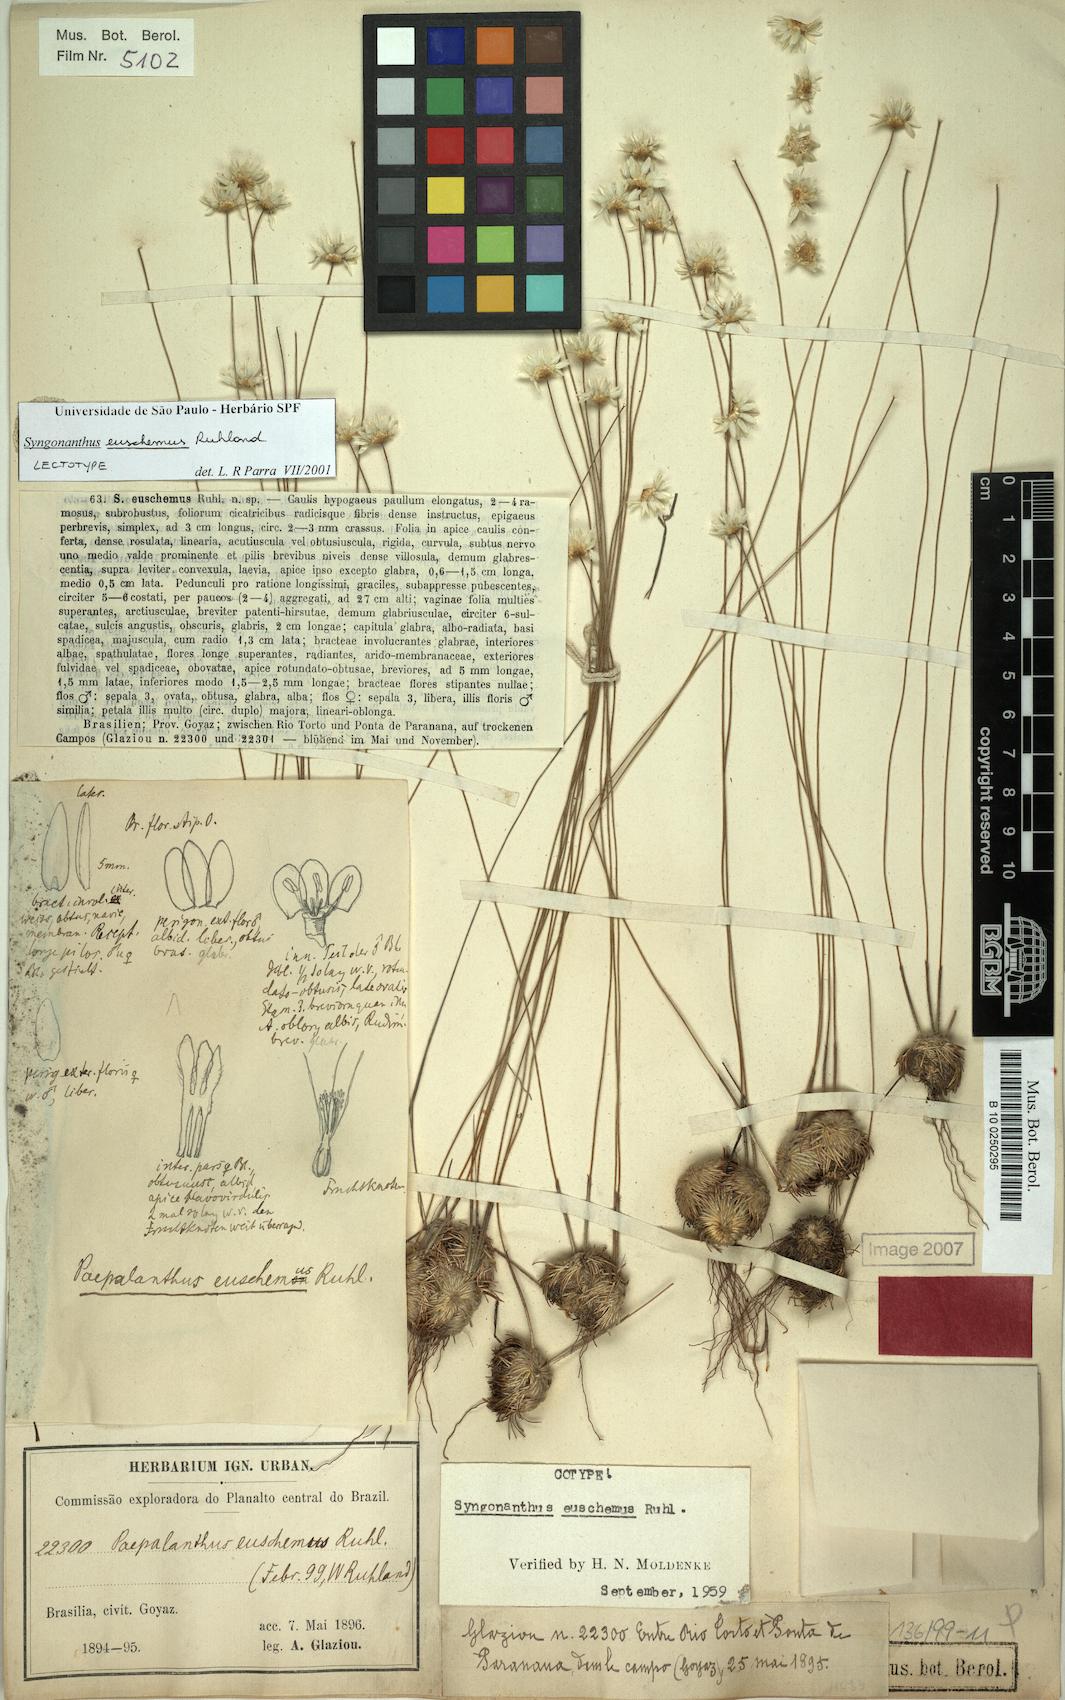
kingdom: Plantae
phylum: Tracheophyta
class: Liliopsida
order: Poales
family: Eriocaulaceae
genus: Comanthera
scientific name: Comanthera euschemus
